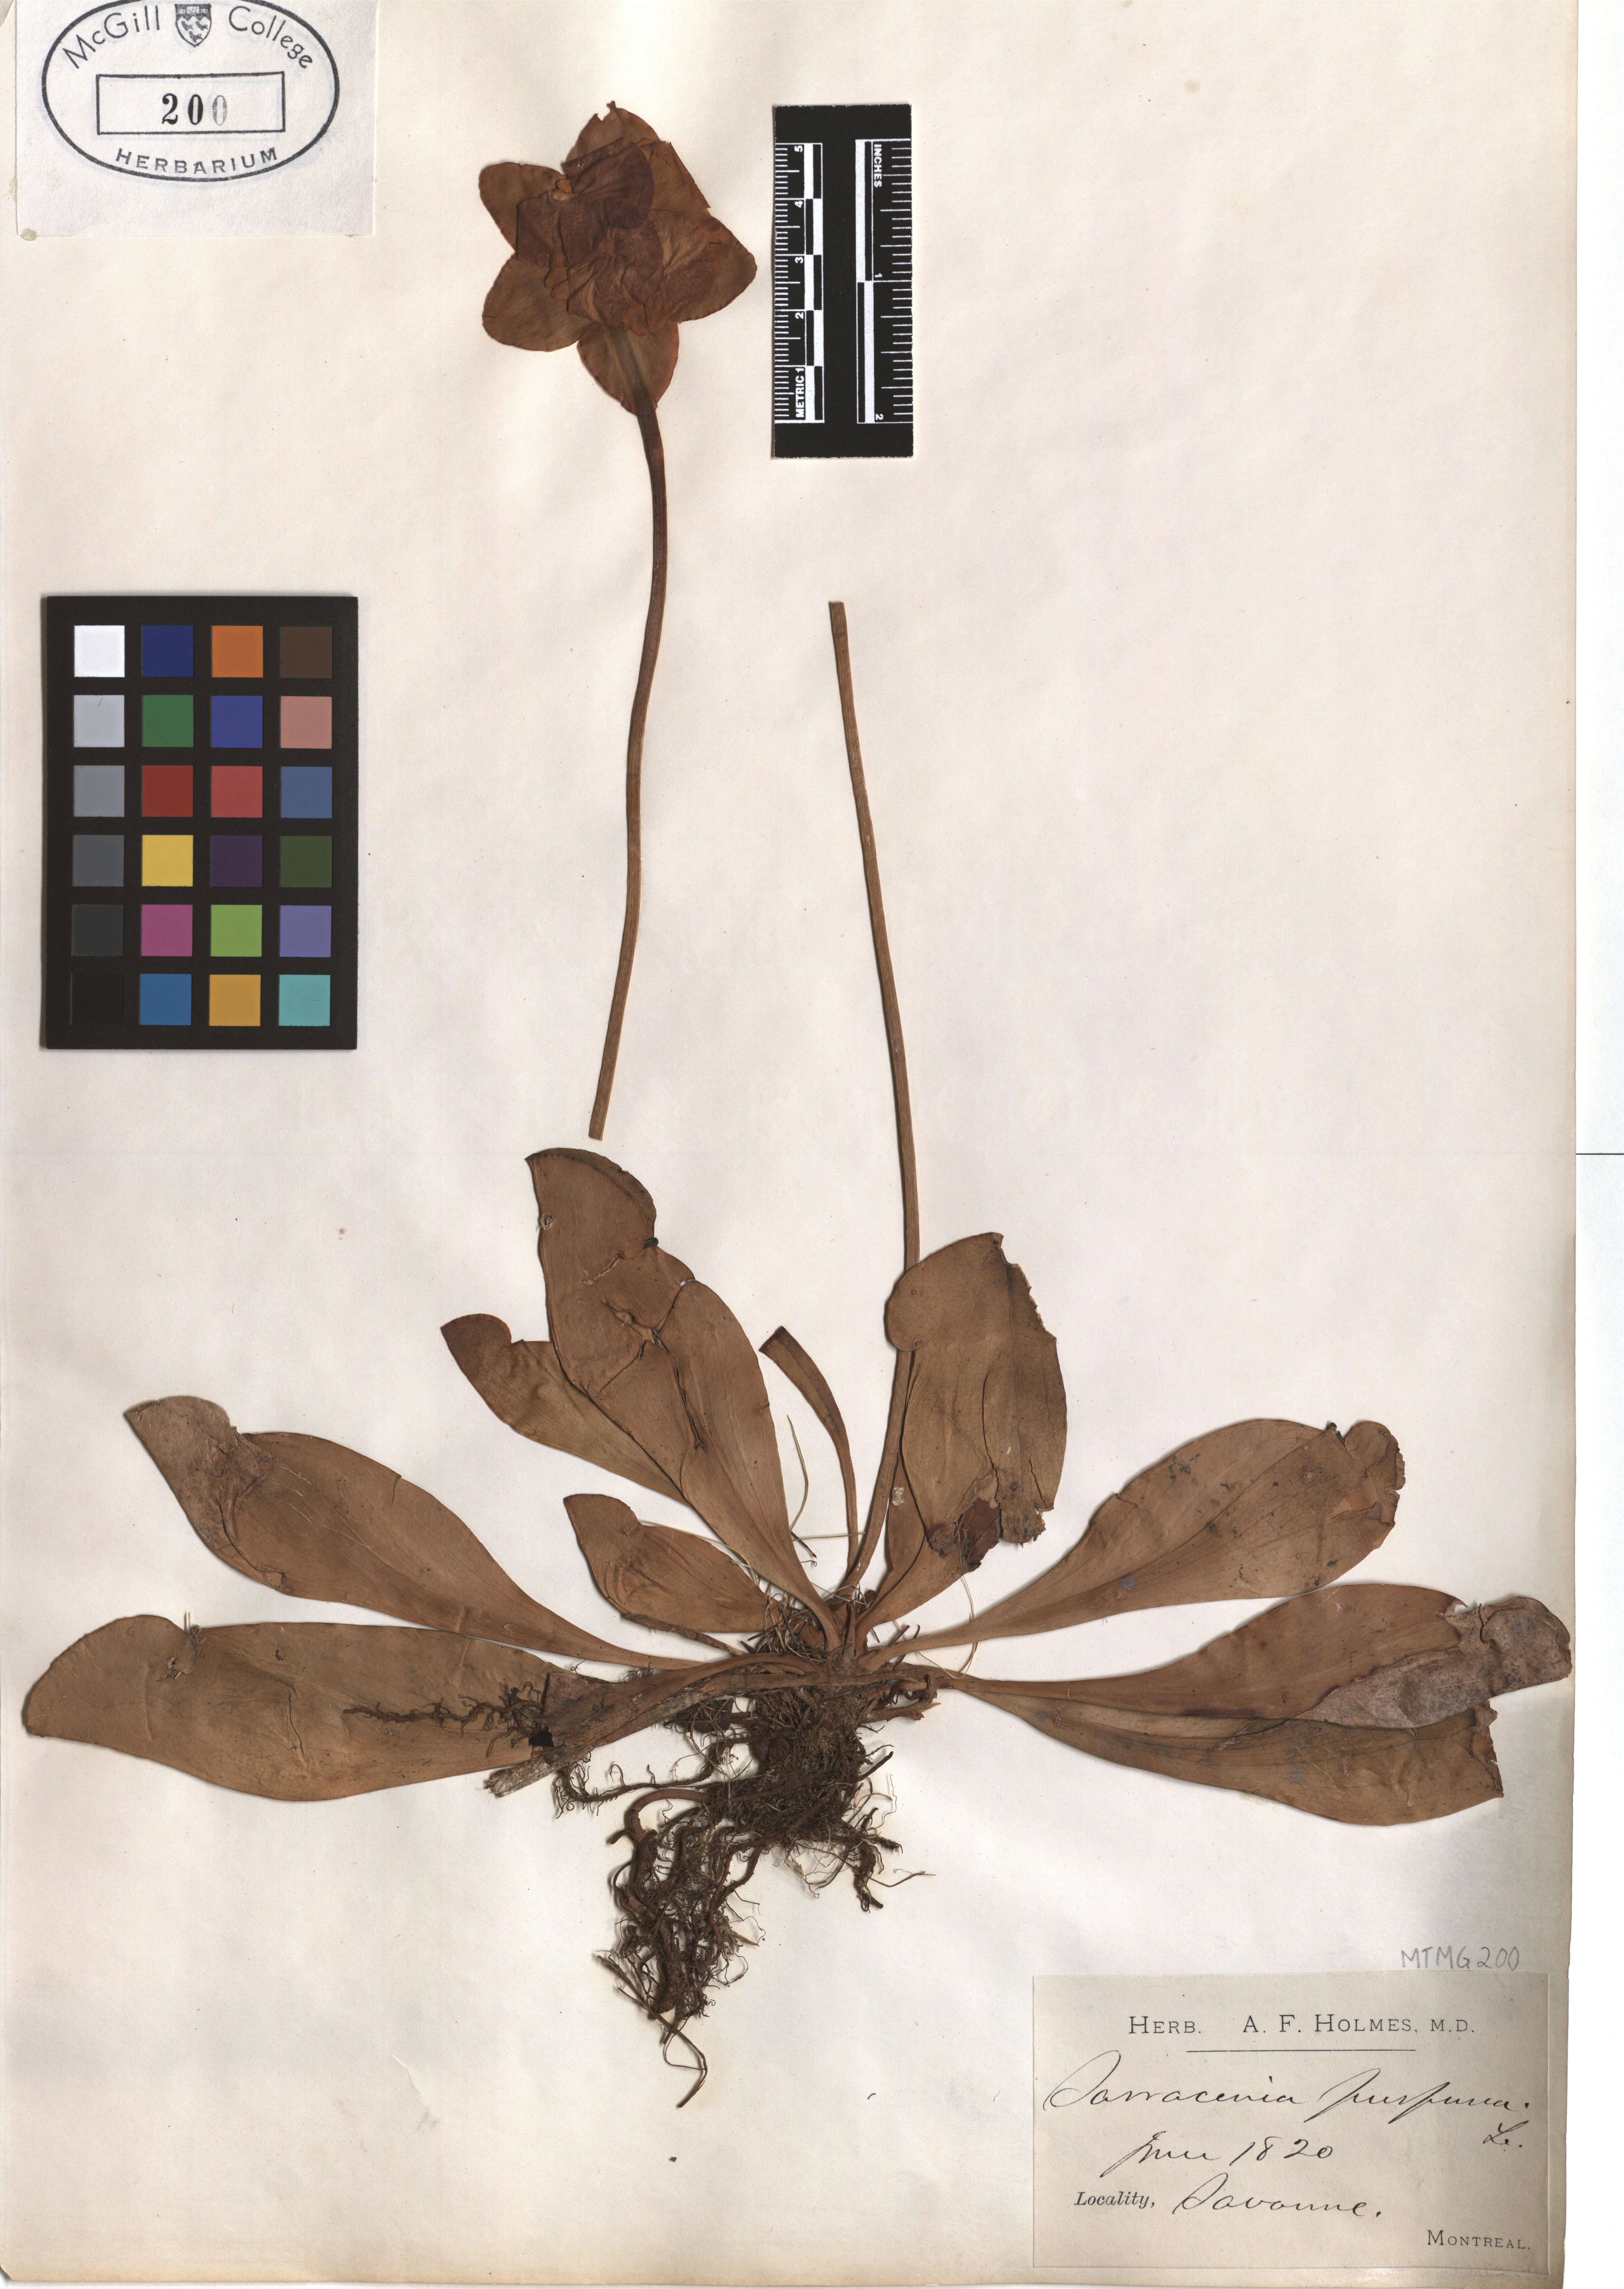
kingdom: Plantae
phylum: Tracheophyta
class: Magnoliopsida
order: Ericales
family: Sarraceniaceae
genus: Sarracenia
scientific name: Sarracenia purpurea
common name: Pitcherplant
